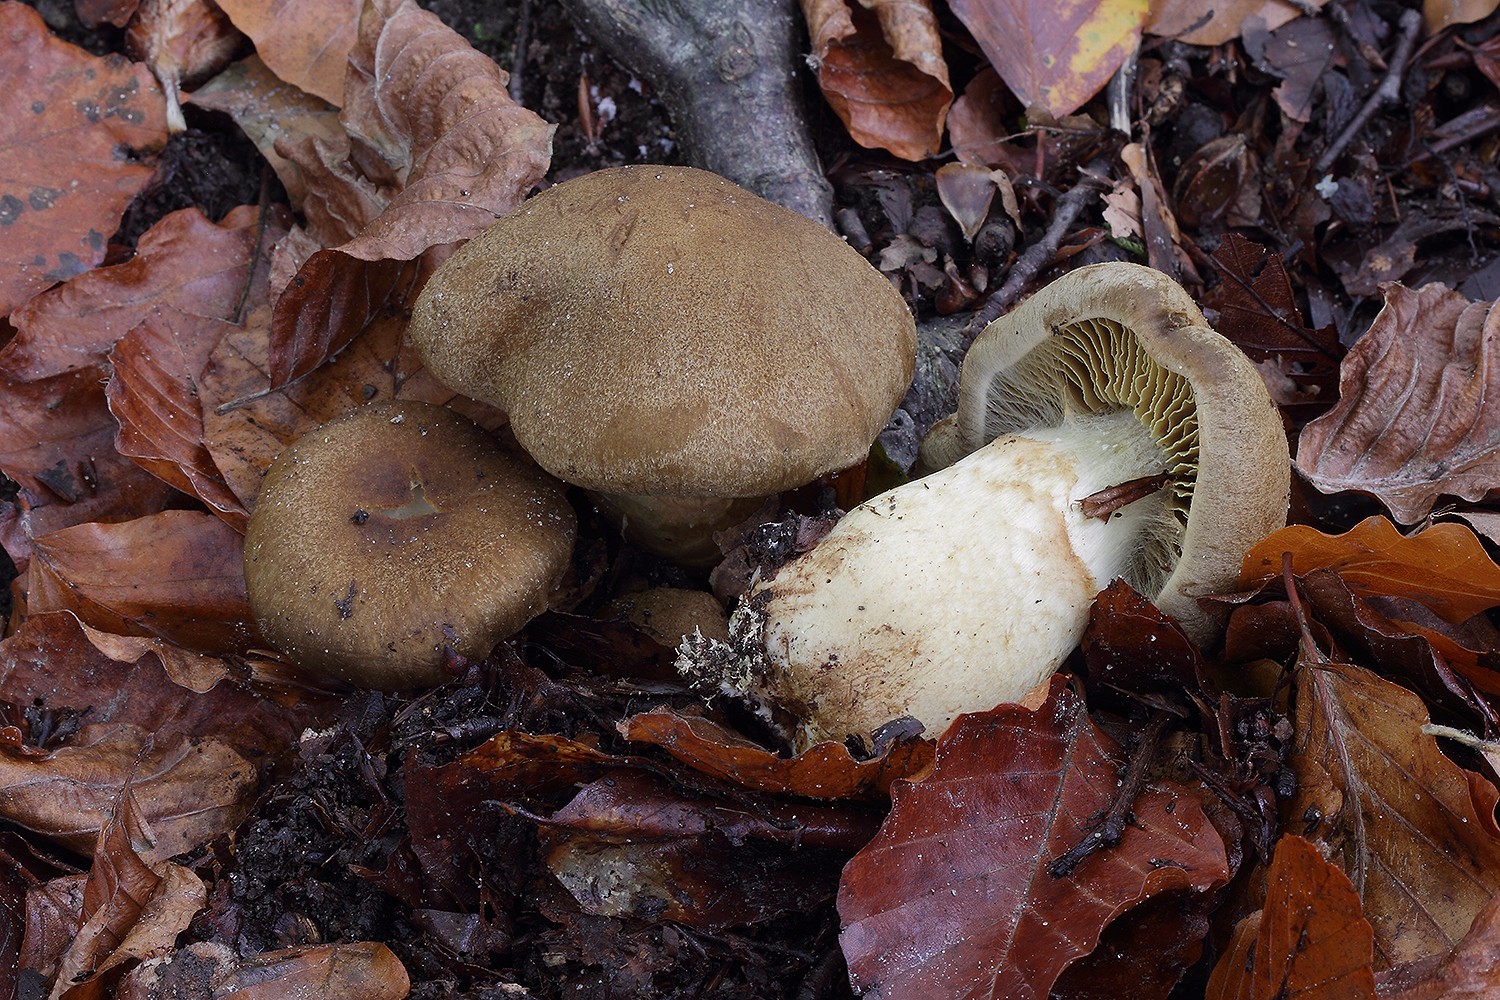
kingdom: Fungi
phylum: Basidiomycota
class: Agaricomycetes
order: Agaricales
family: Cortinariaceae
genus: Cortinarius
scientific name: Cortinarius cotoneus
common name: ulden slørhat
